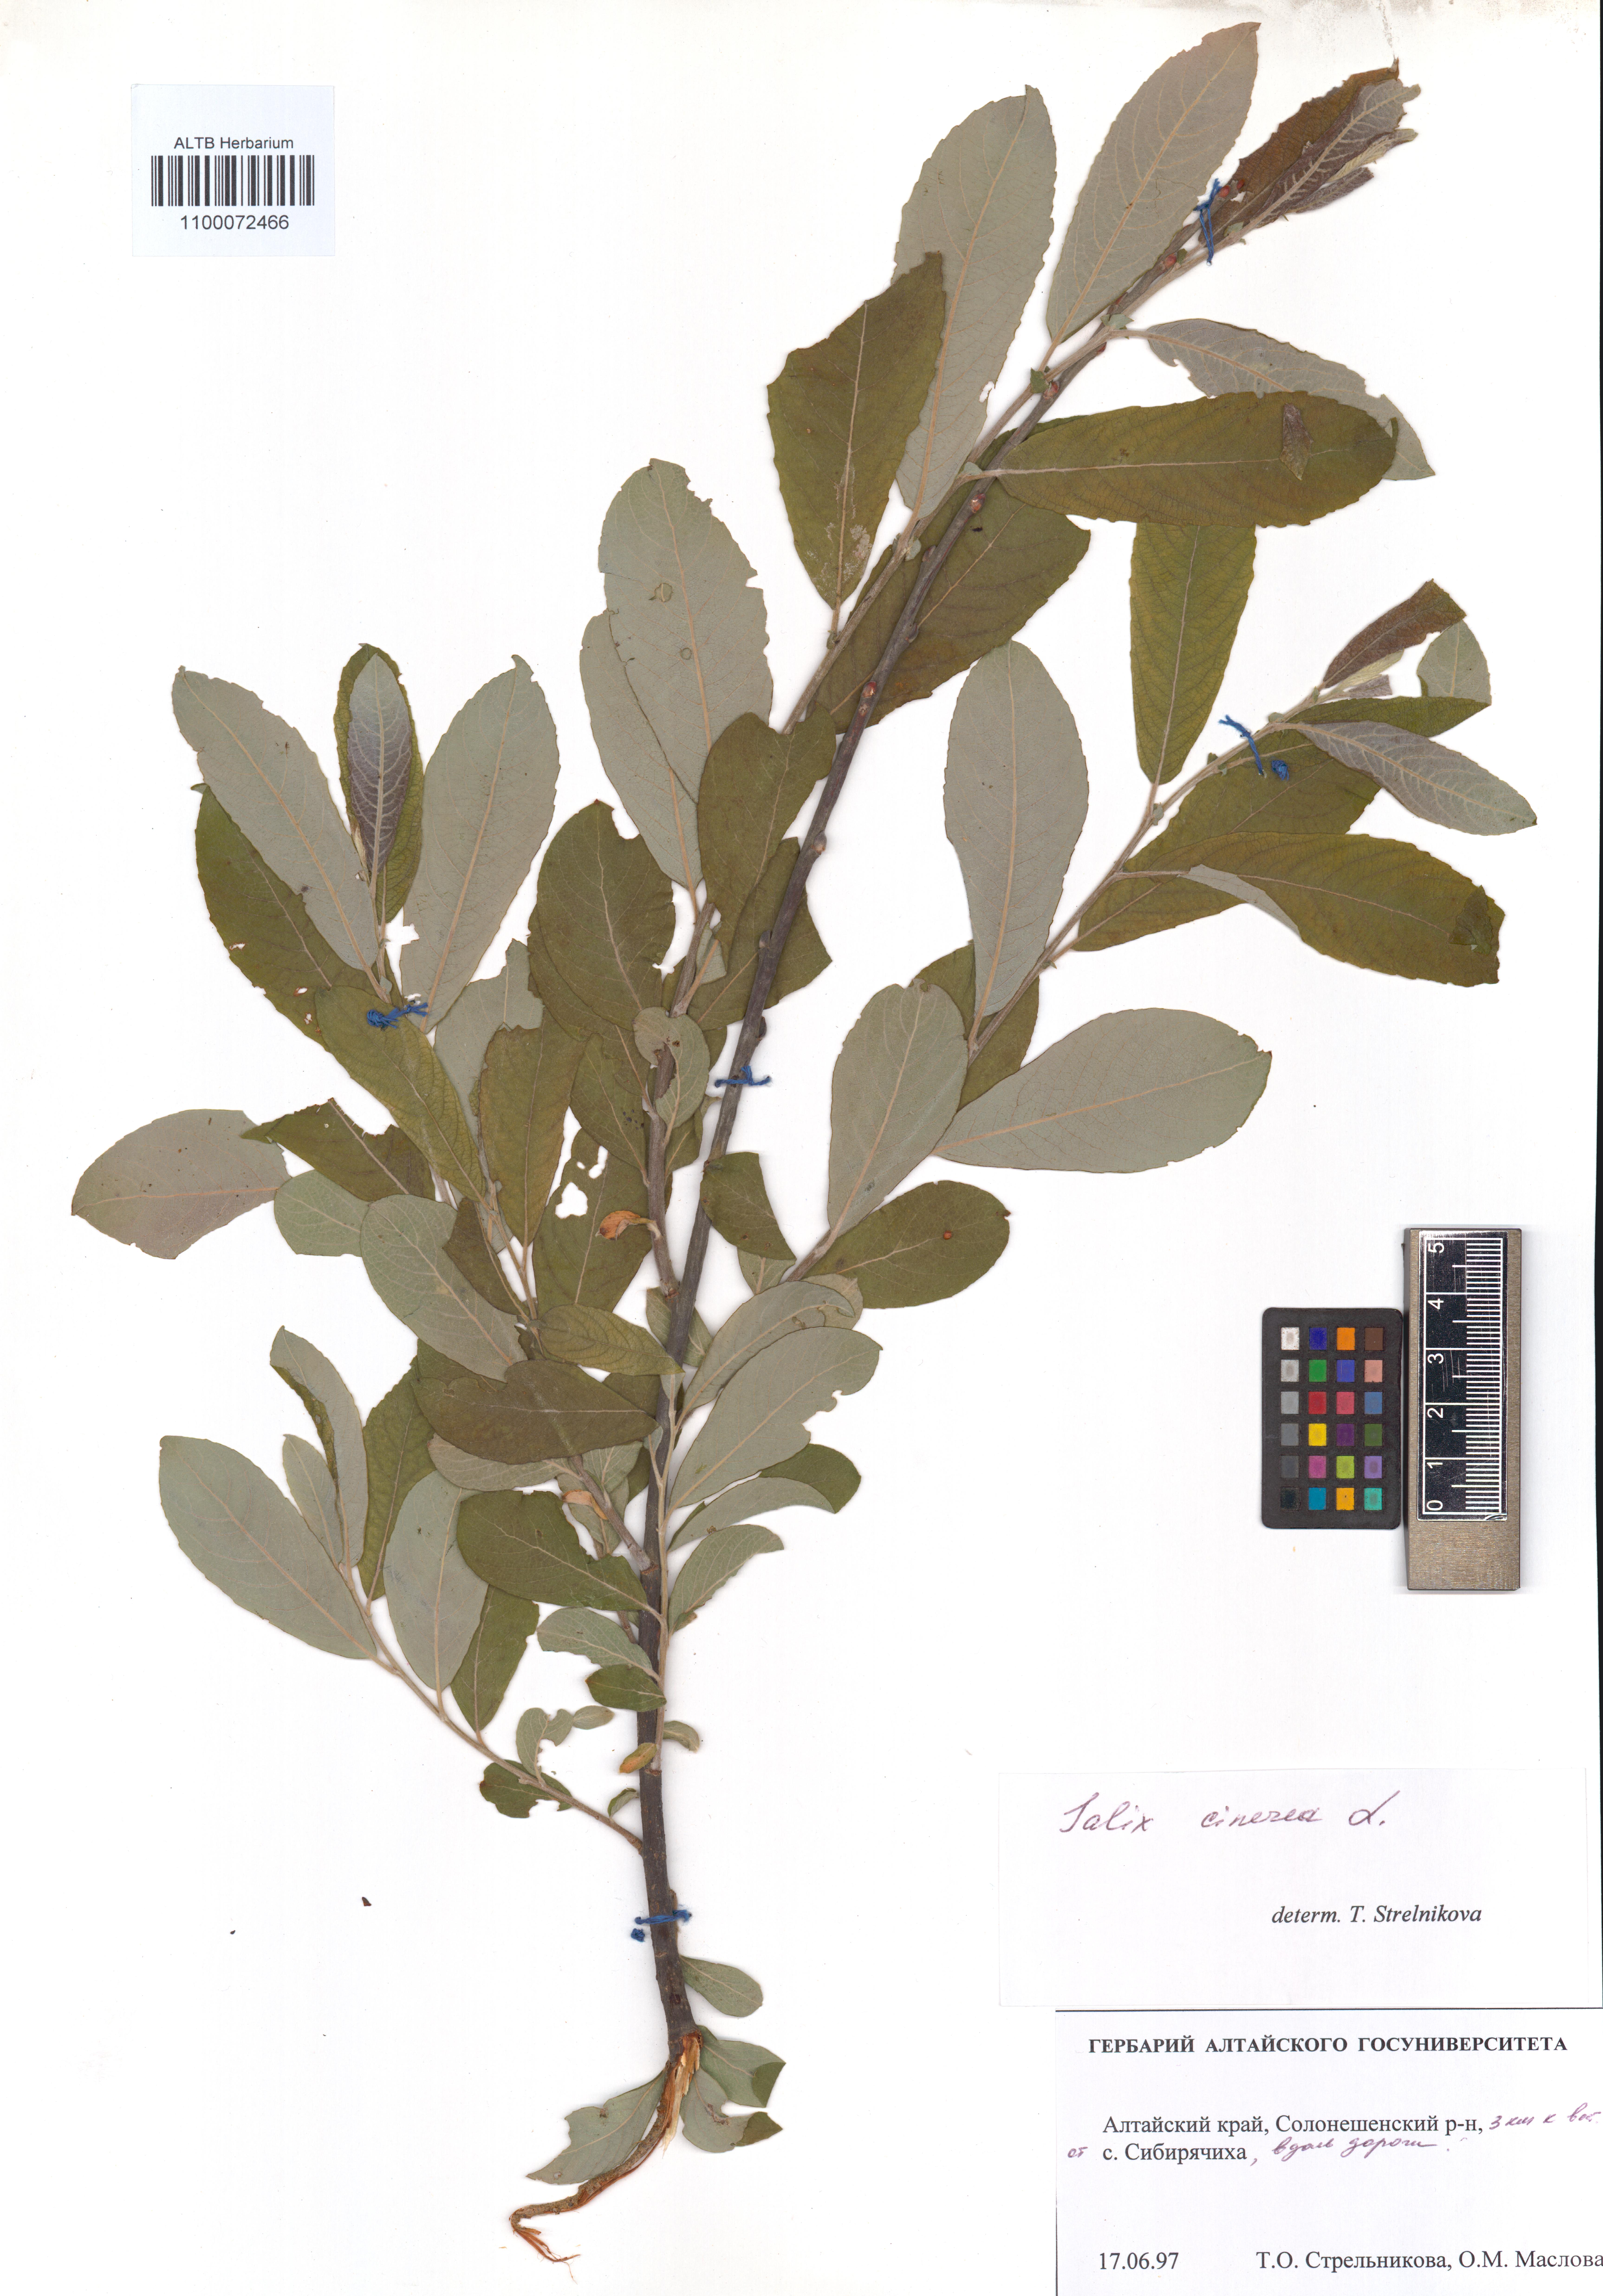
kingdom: Plantae
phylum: Tracheophyta
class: Magnoliopsida
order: Malpighiales
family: Salicaceae
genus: Salix
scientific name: Salix cinerea
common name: Common sallow
